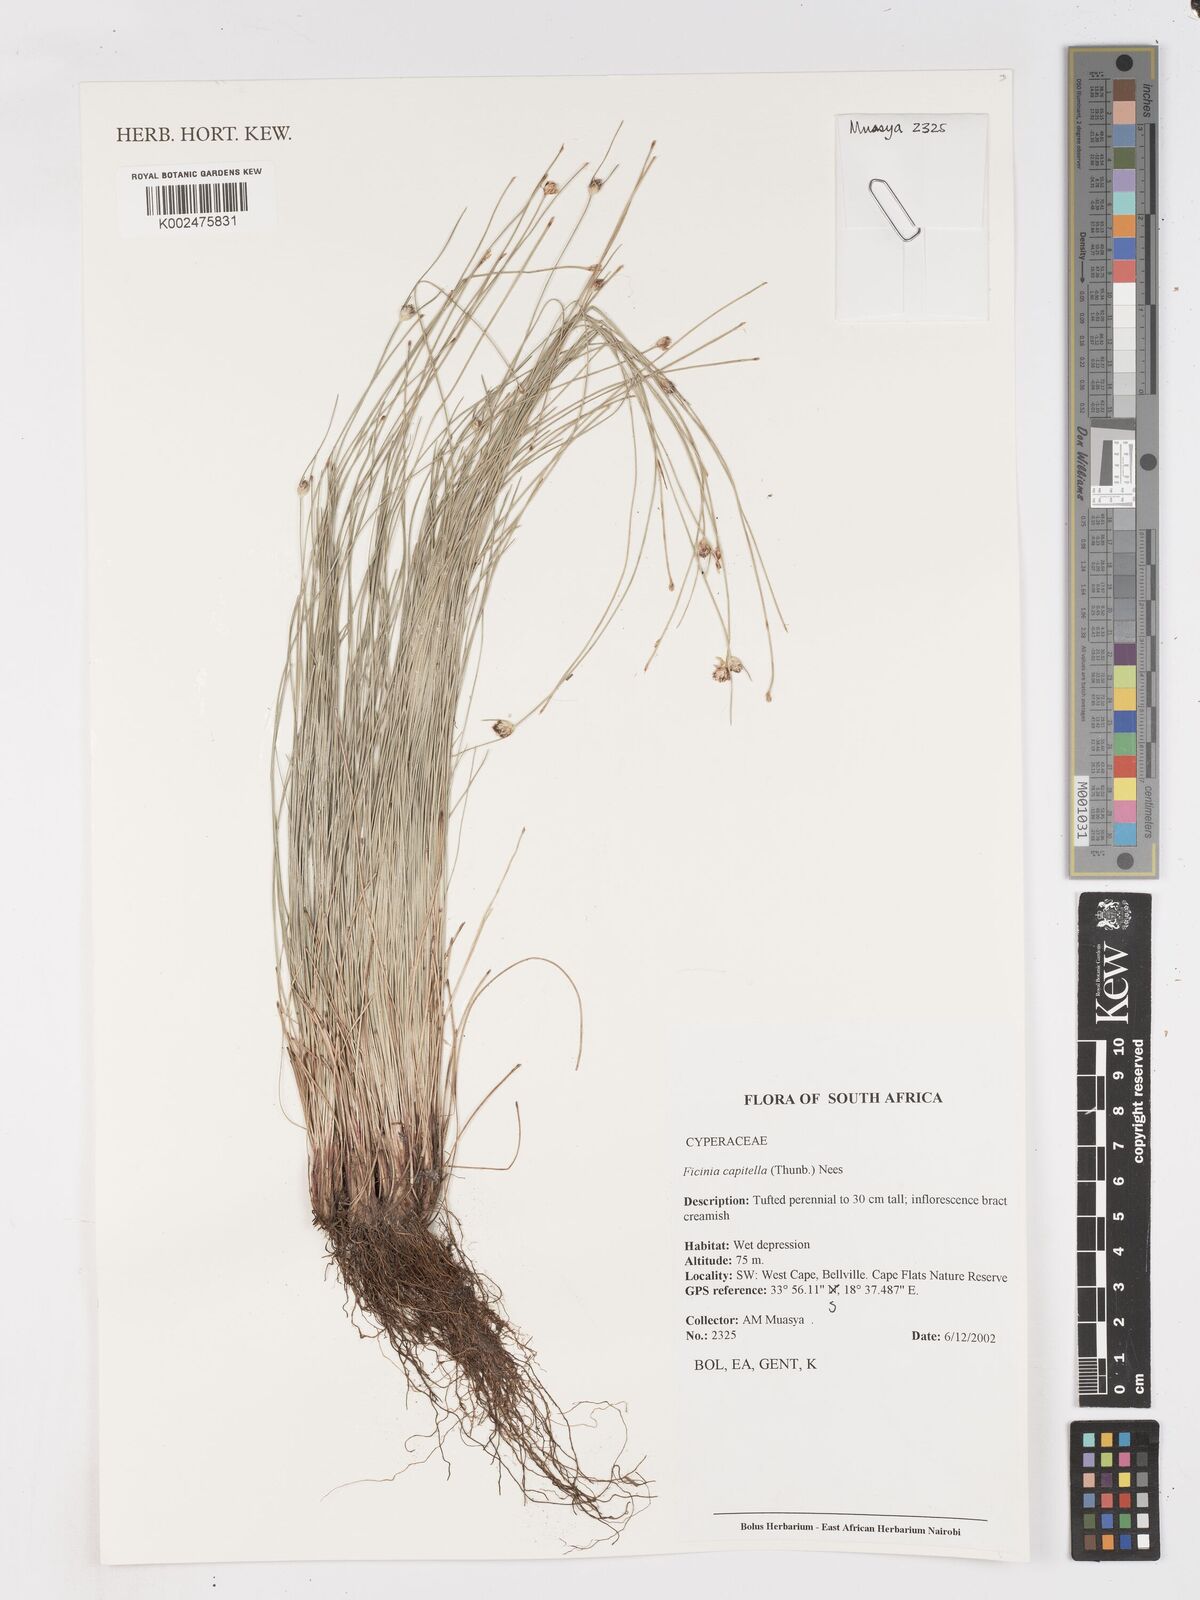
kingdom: Plantae
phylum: Tracheophyta
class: Liliopsida
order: Poales
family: Cyperaceae
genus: Ficinia
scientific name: Ficinia capitella
